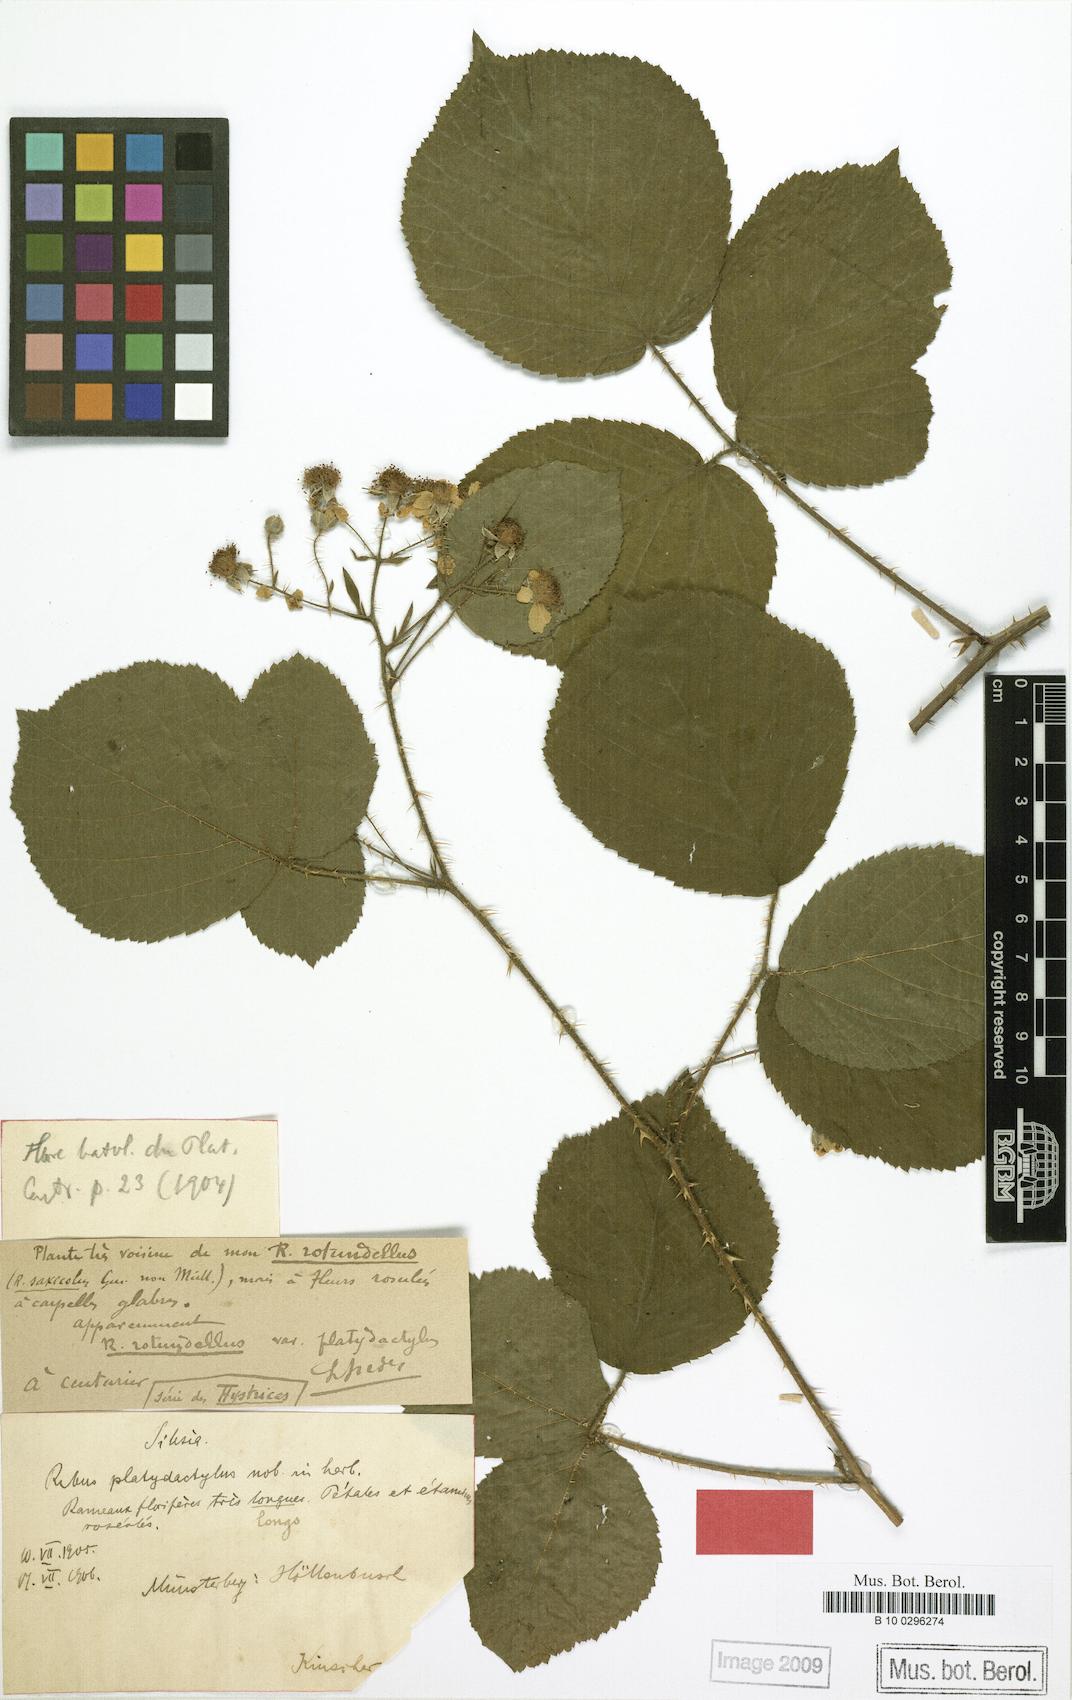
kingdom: Plantae
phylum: Tracheophyta
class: Magnoliopsida
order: Rosales
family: Rosaceae
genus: Rubus
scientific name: Rubus platydactylus
